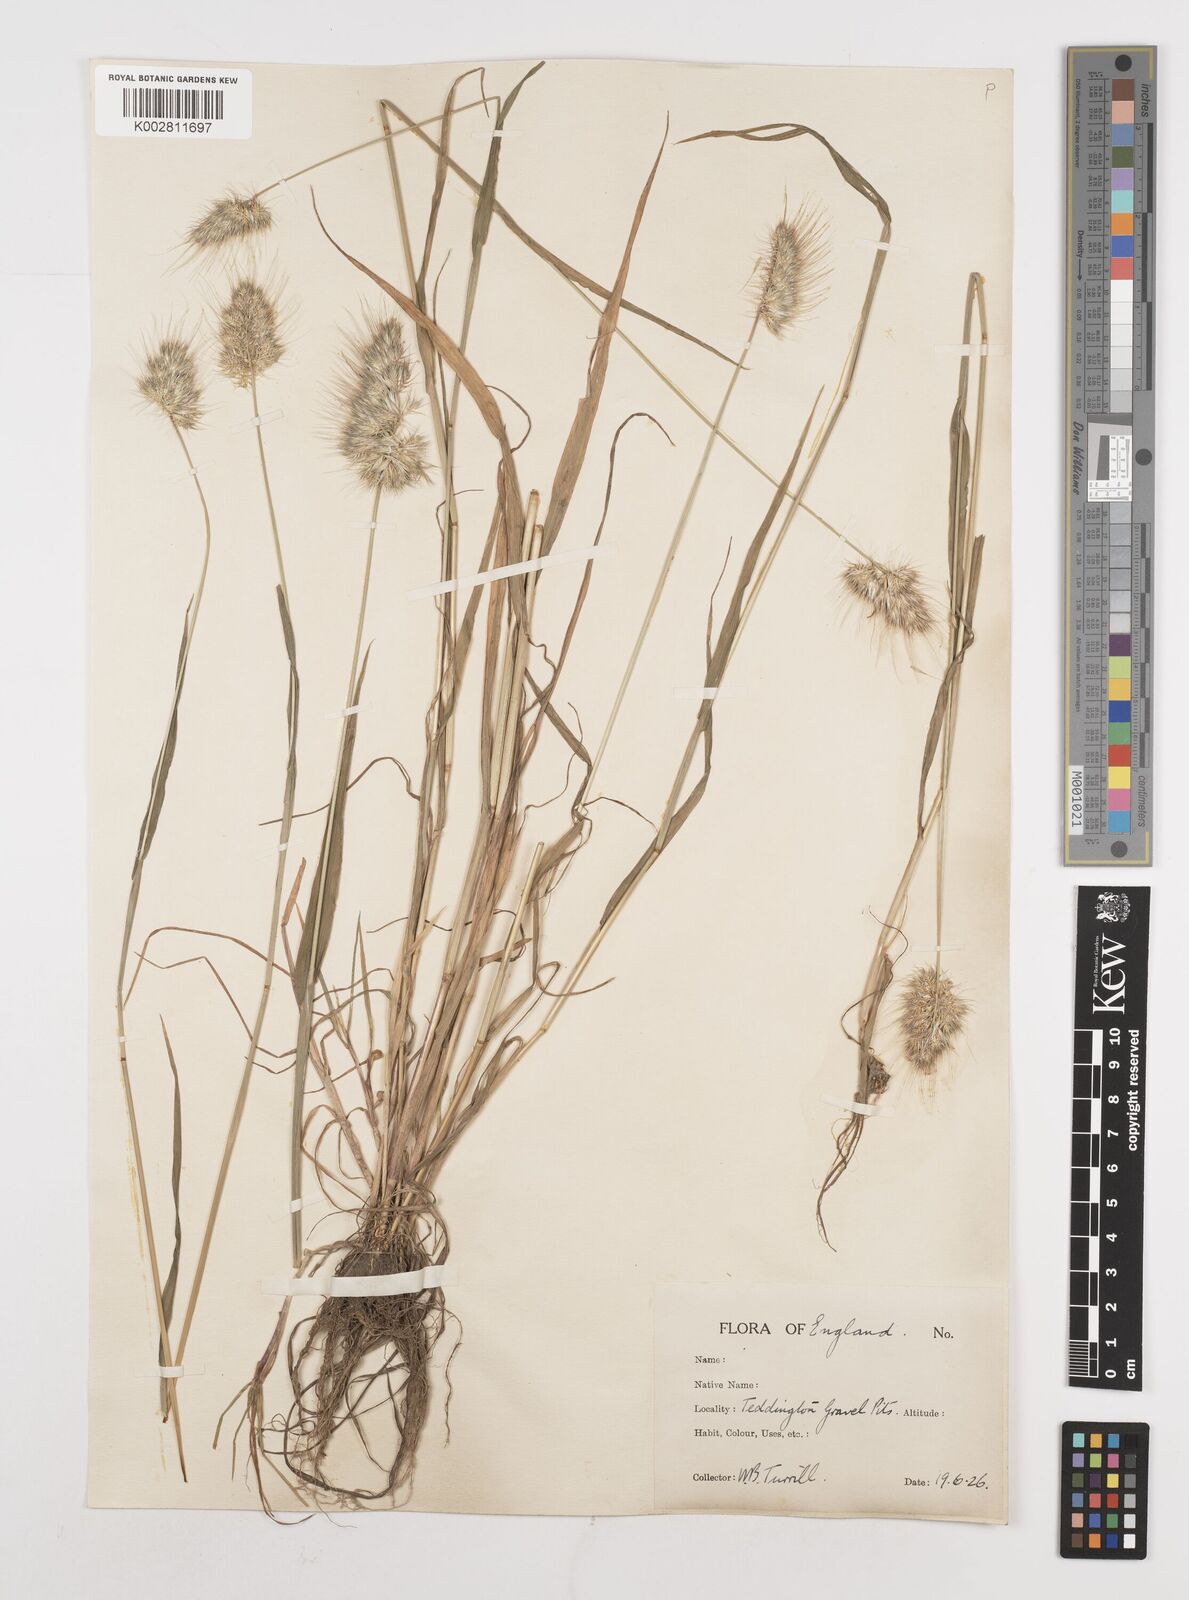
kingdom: Plantae
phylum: Tracheophyta
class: Liliopsida
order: Poales
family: Poaceae
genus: Cynosurus
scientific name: Cynosurus echinatus
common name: Rough dog's-tail
